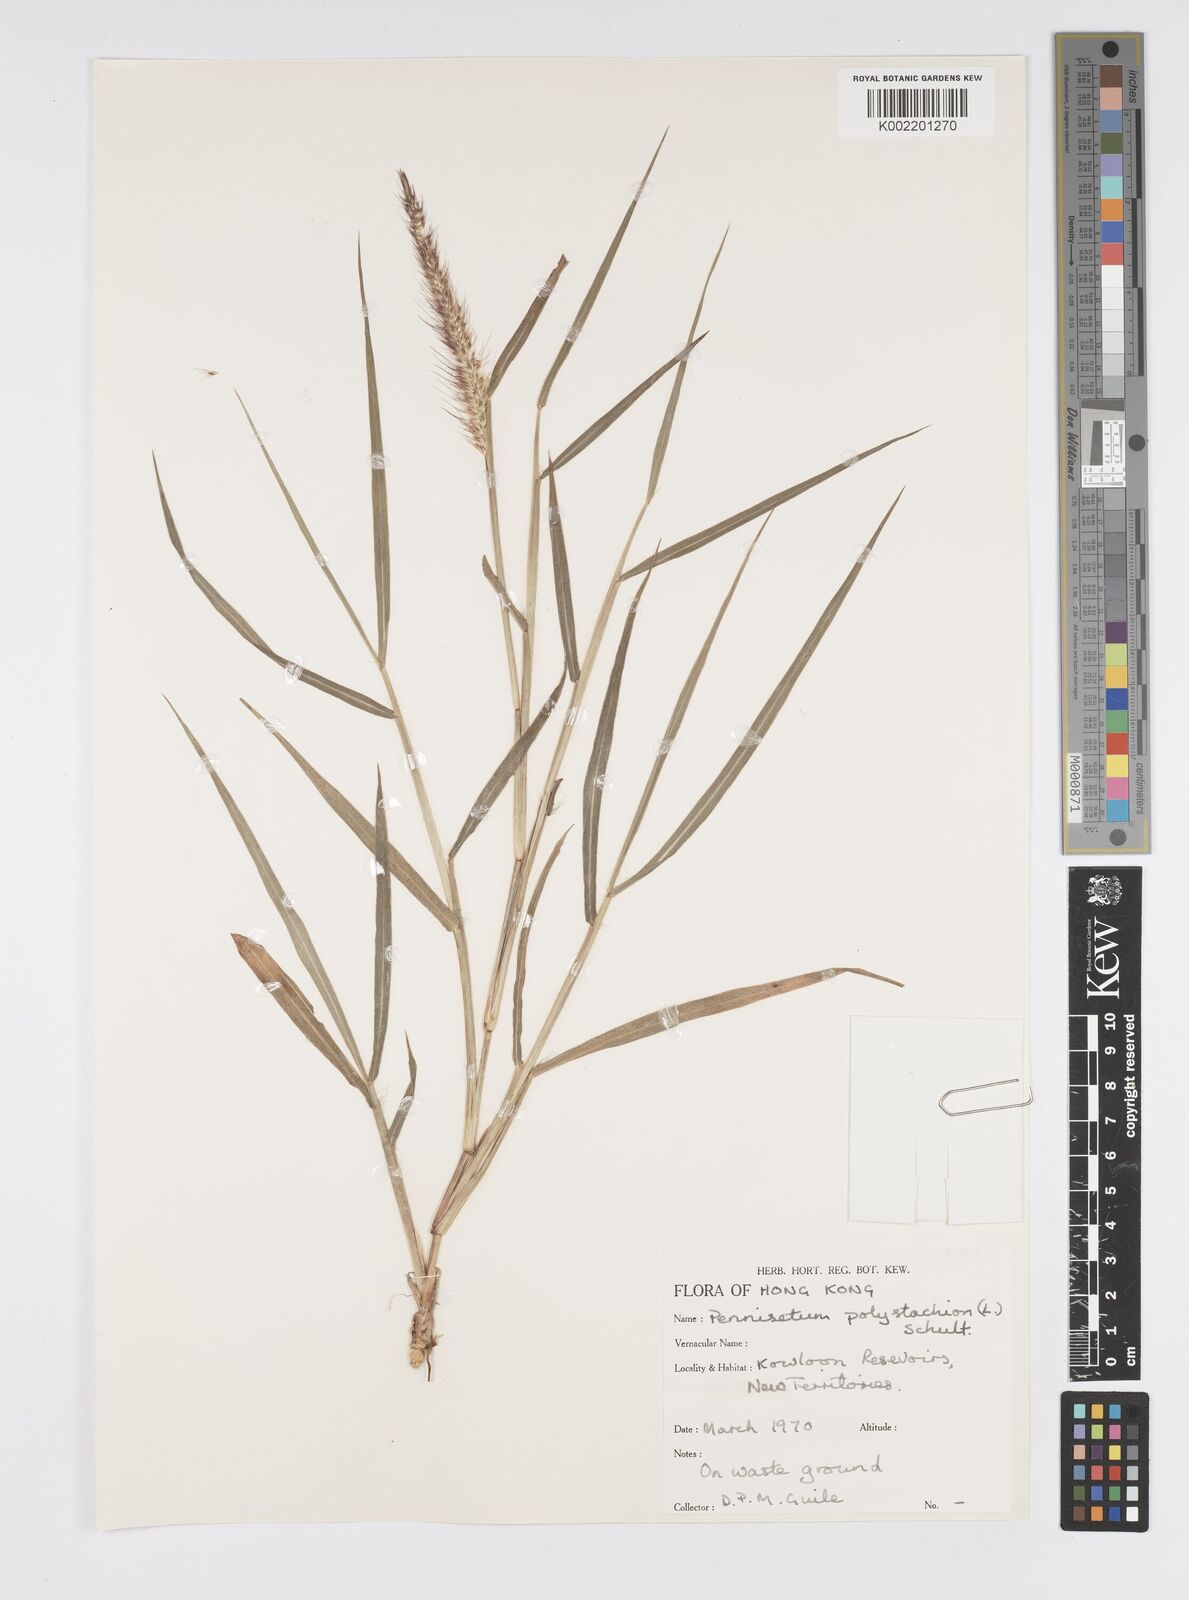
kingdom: Plantae
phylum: Tracheophyta
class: Liliopsida
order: Poales
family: Poaceae
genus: Setaria
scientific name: Setaria parviflora
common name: Knotroot bristle-grass
